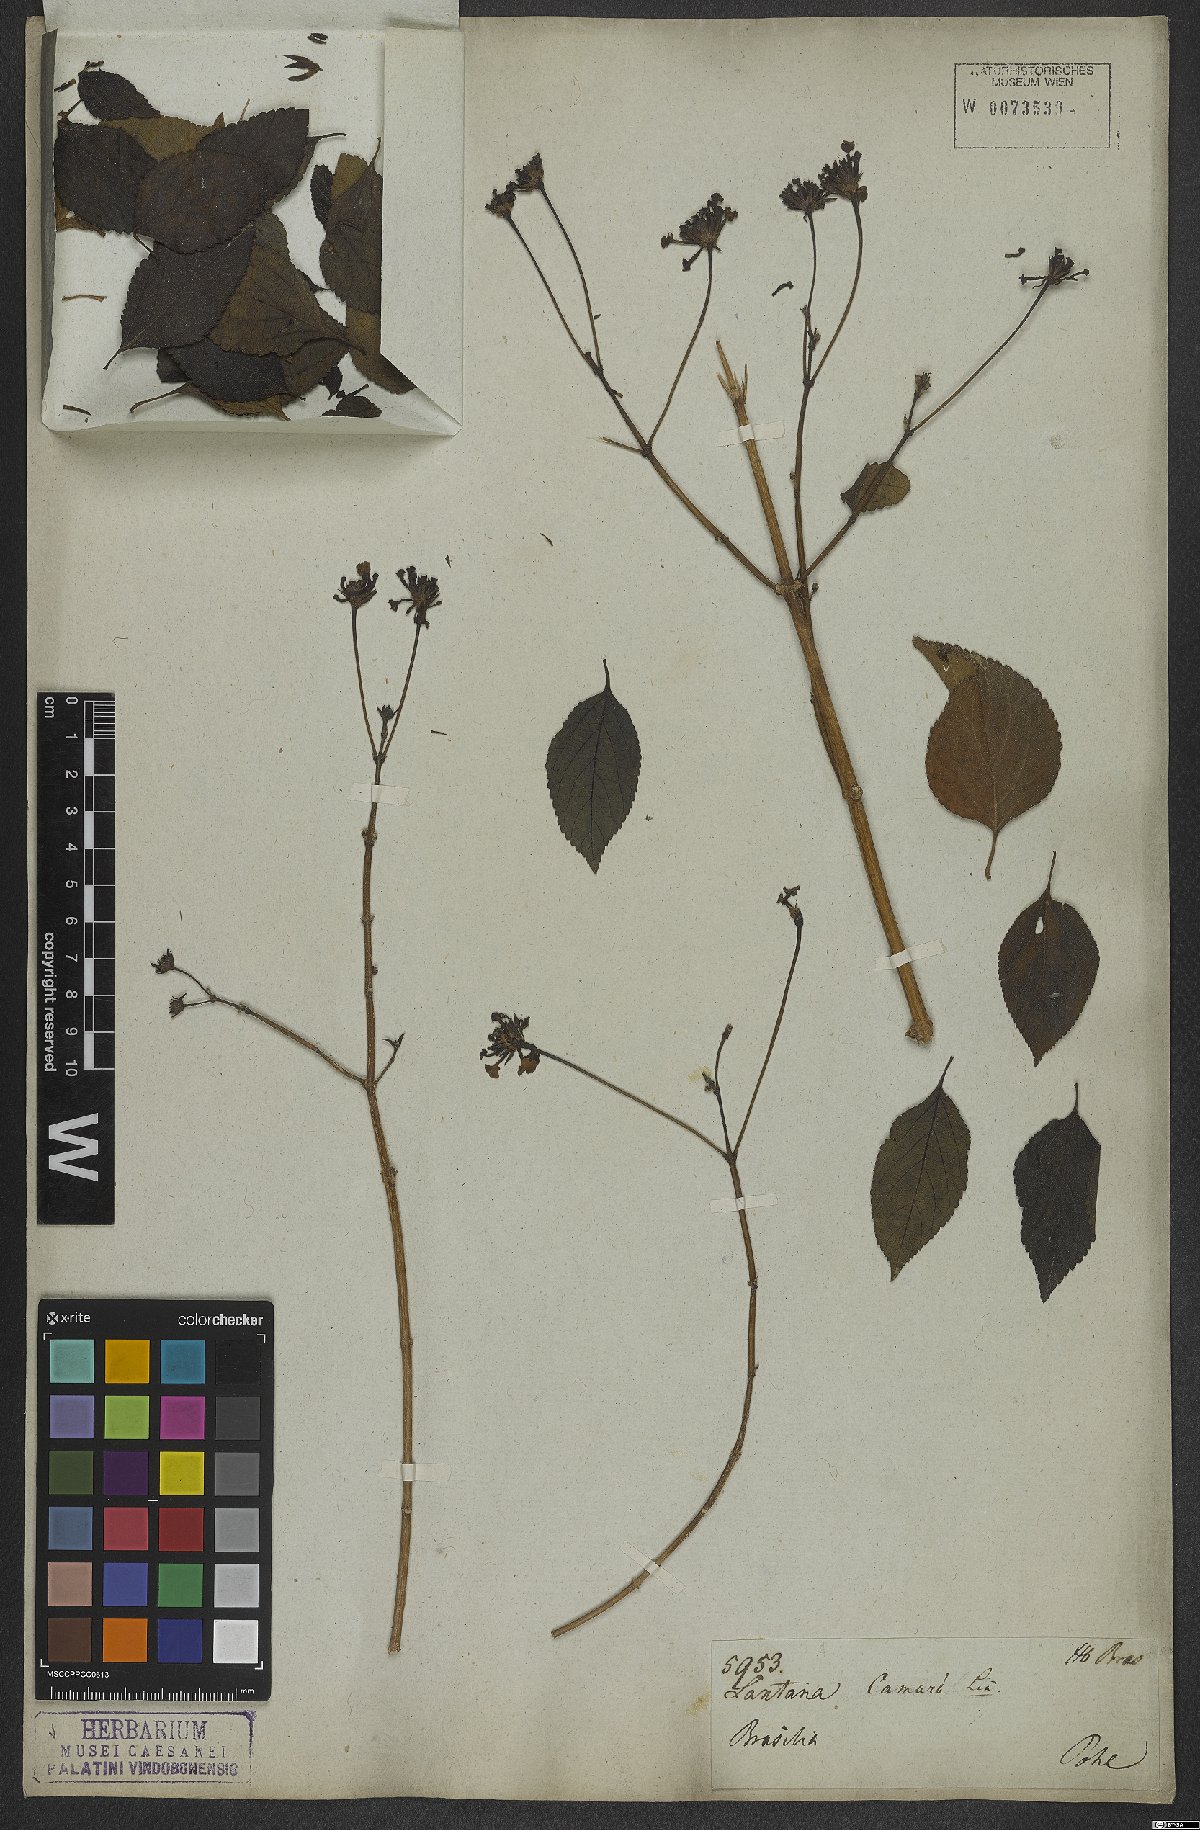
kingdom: Plantae
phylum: Tracheophyta
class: Magnoliopsida
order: Lamiales
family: Verbenaceae
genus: Lantana
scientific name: Lantana camara
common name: Lantana
